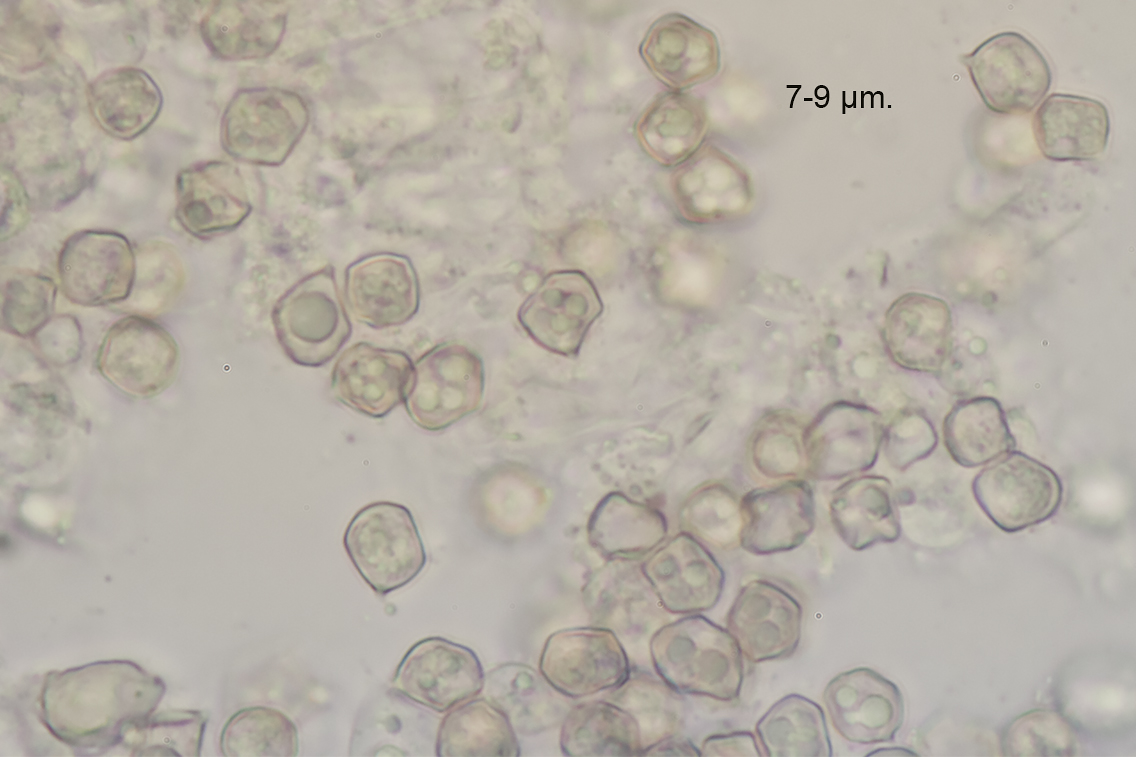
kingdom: Fungi
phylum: Basidiomycota
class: Agaricomycetes
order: Agaricales
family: Entolomataceae
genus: Entoloma
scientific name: Entoloma phaeodiscum
